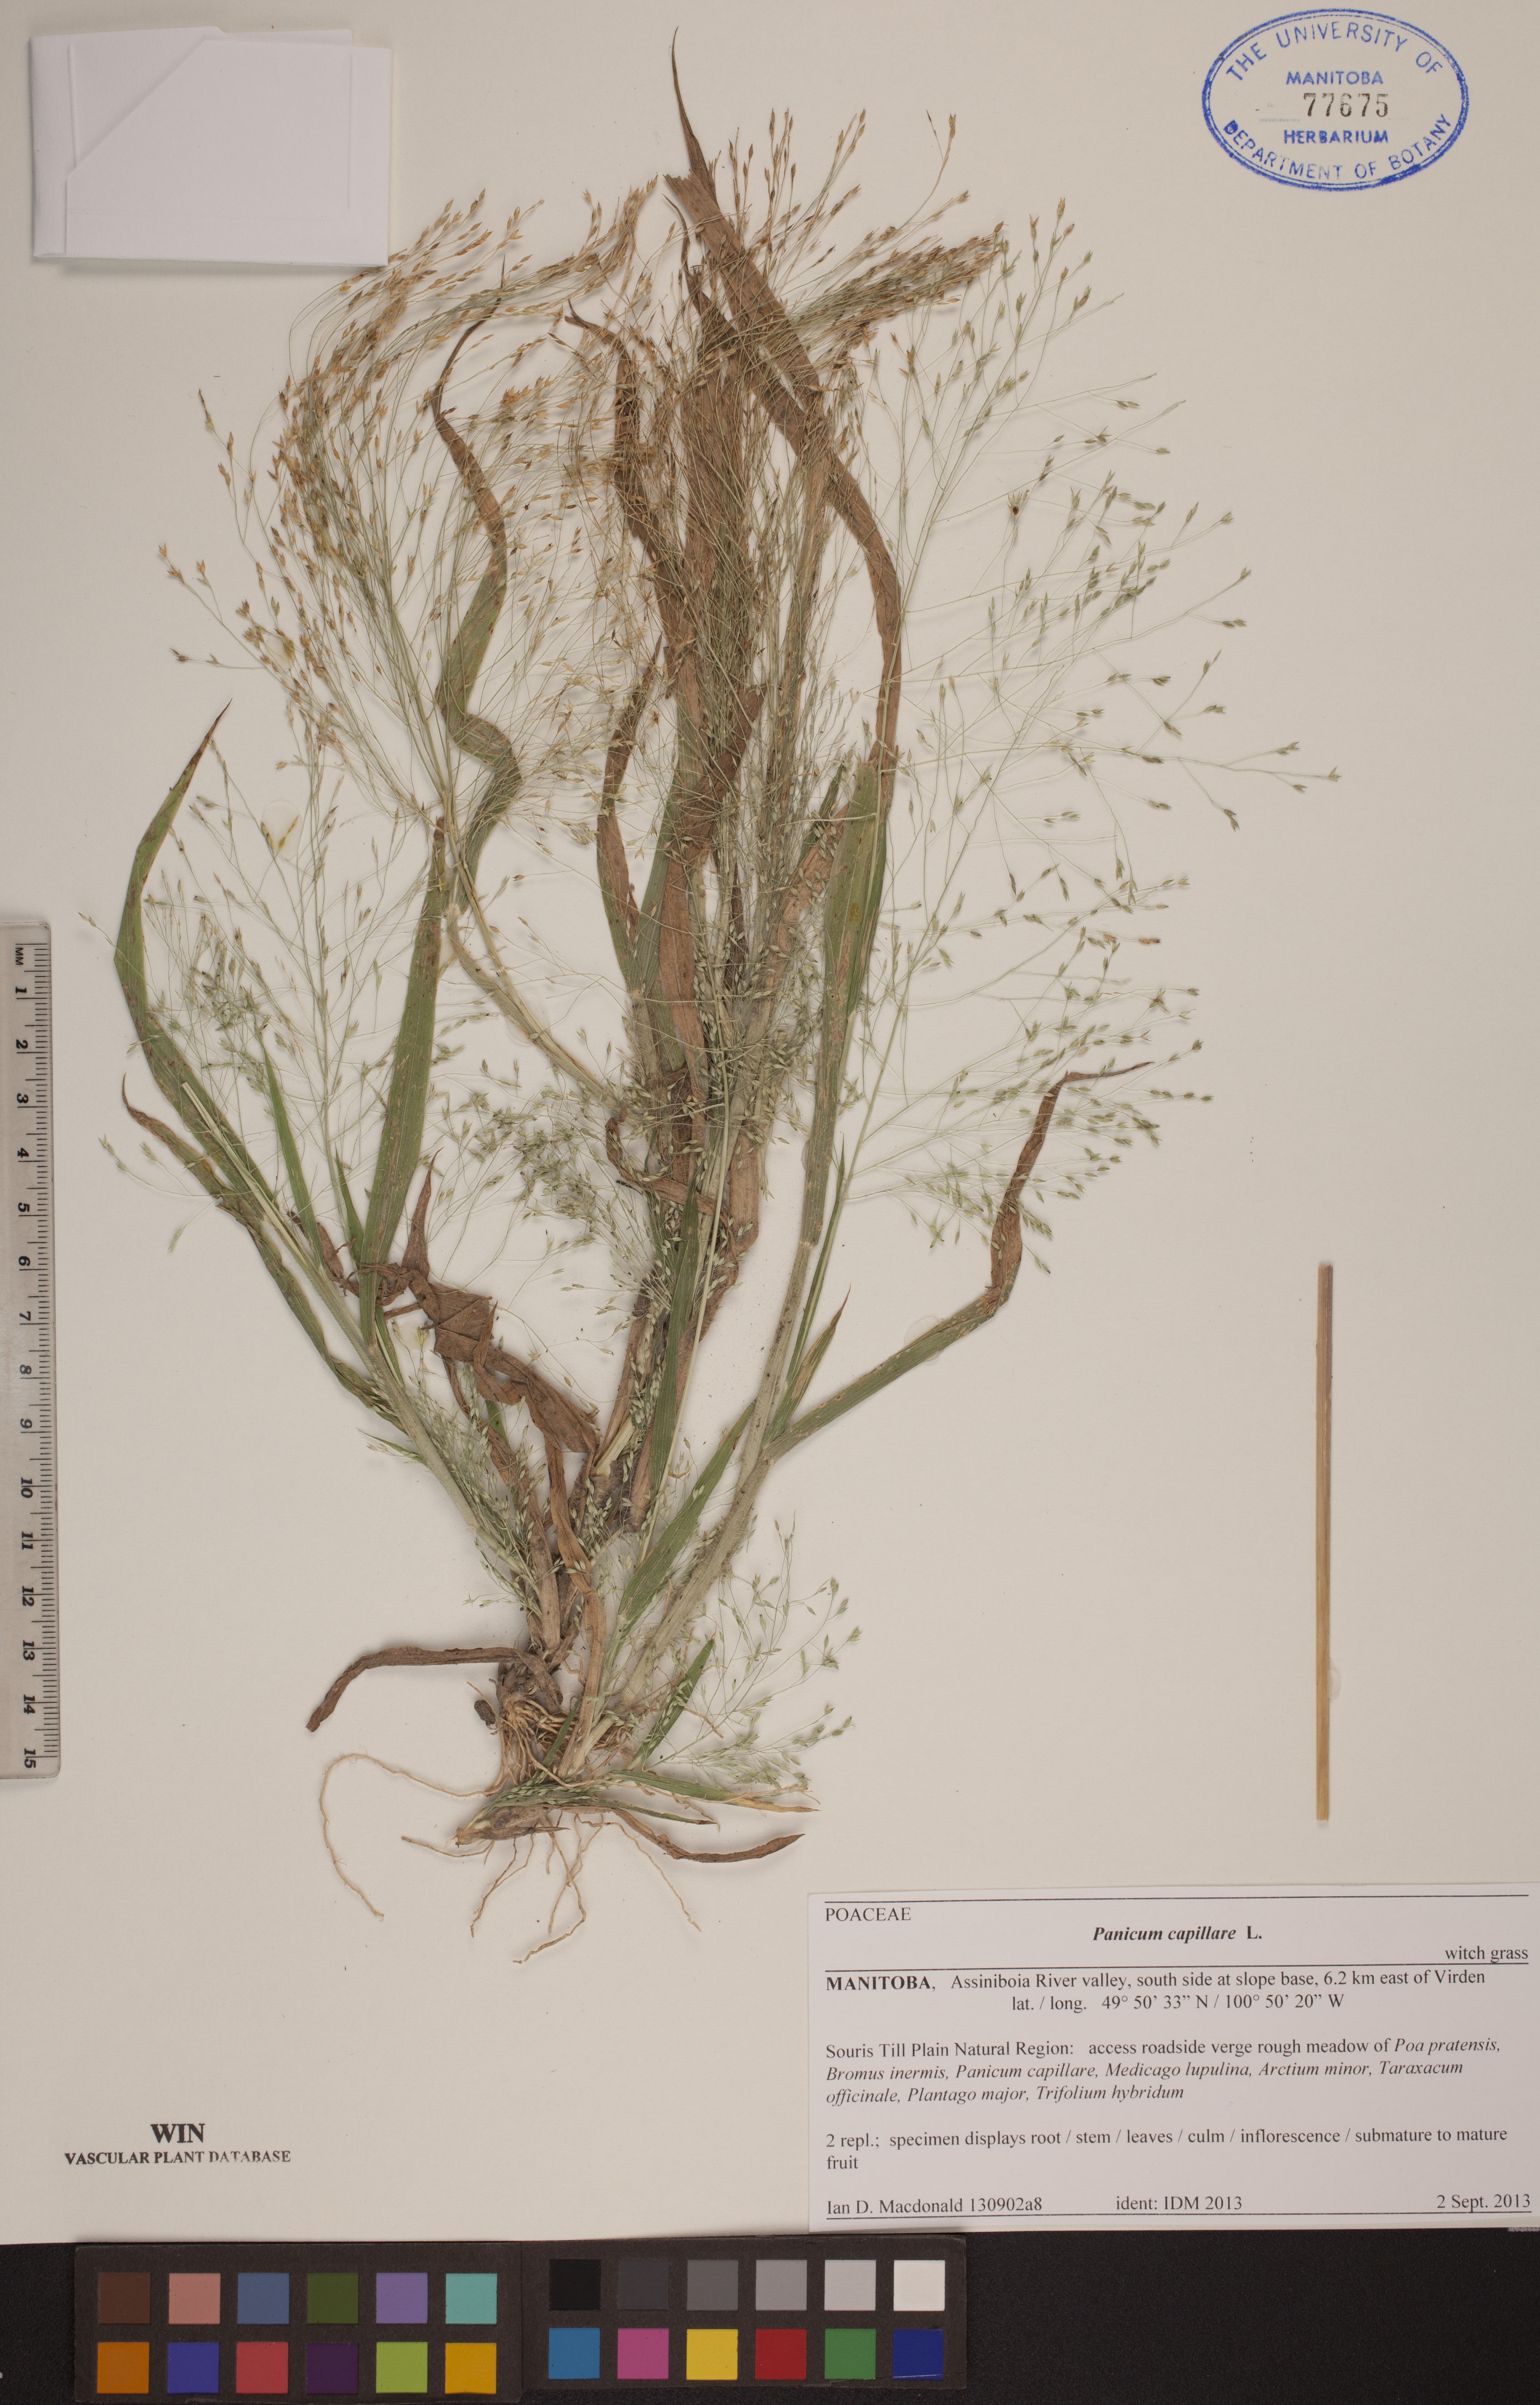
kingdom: Plantae
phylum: Tracheophyta
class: Liliopsida
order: Poales
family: Poaceae
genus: Panicum
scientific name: Panicum capillare
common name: Witch-grass
